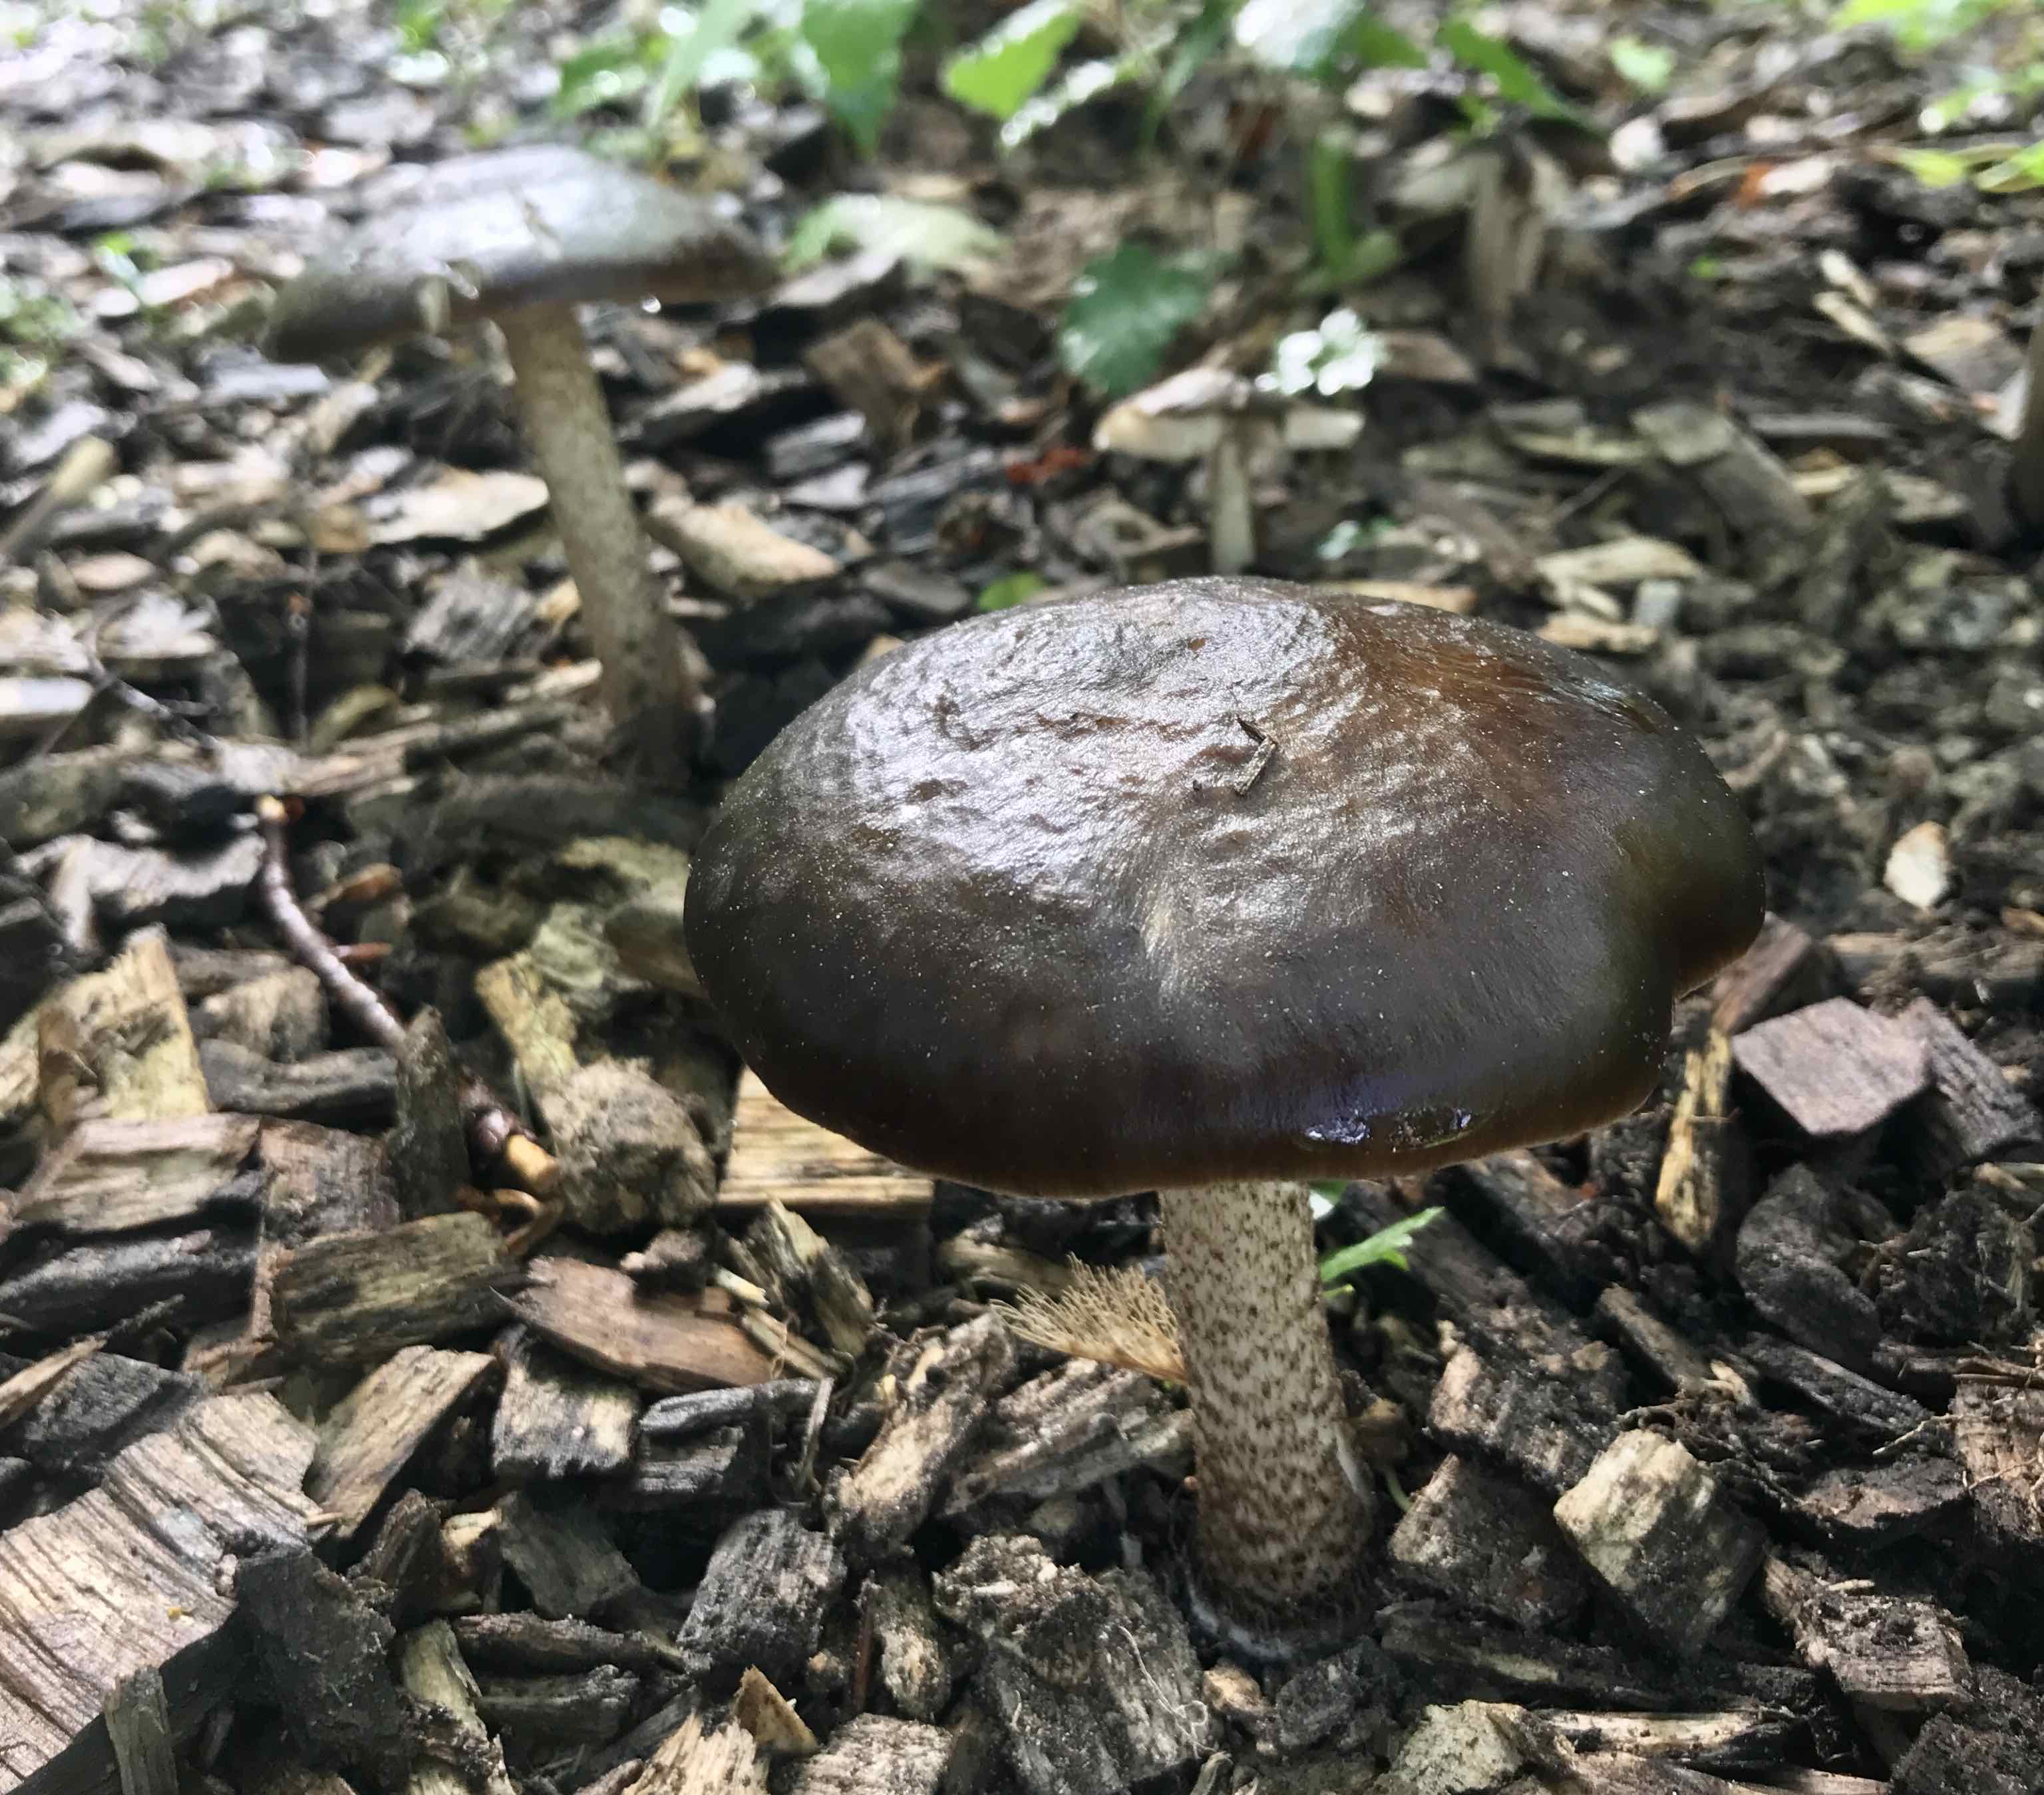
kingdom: Fungi
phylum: Basidiomycota
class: Agaricomycetes
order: Agaricales
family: Pluteaceae
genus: Pluteus
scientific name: Pluteus cervinus
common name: sodfarvet skærmhat
